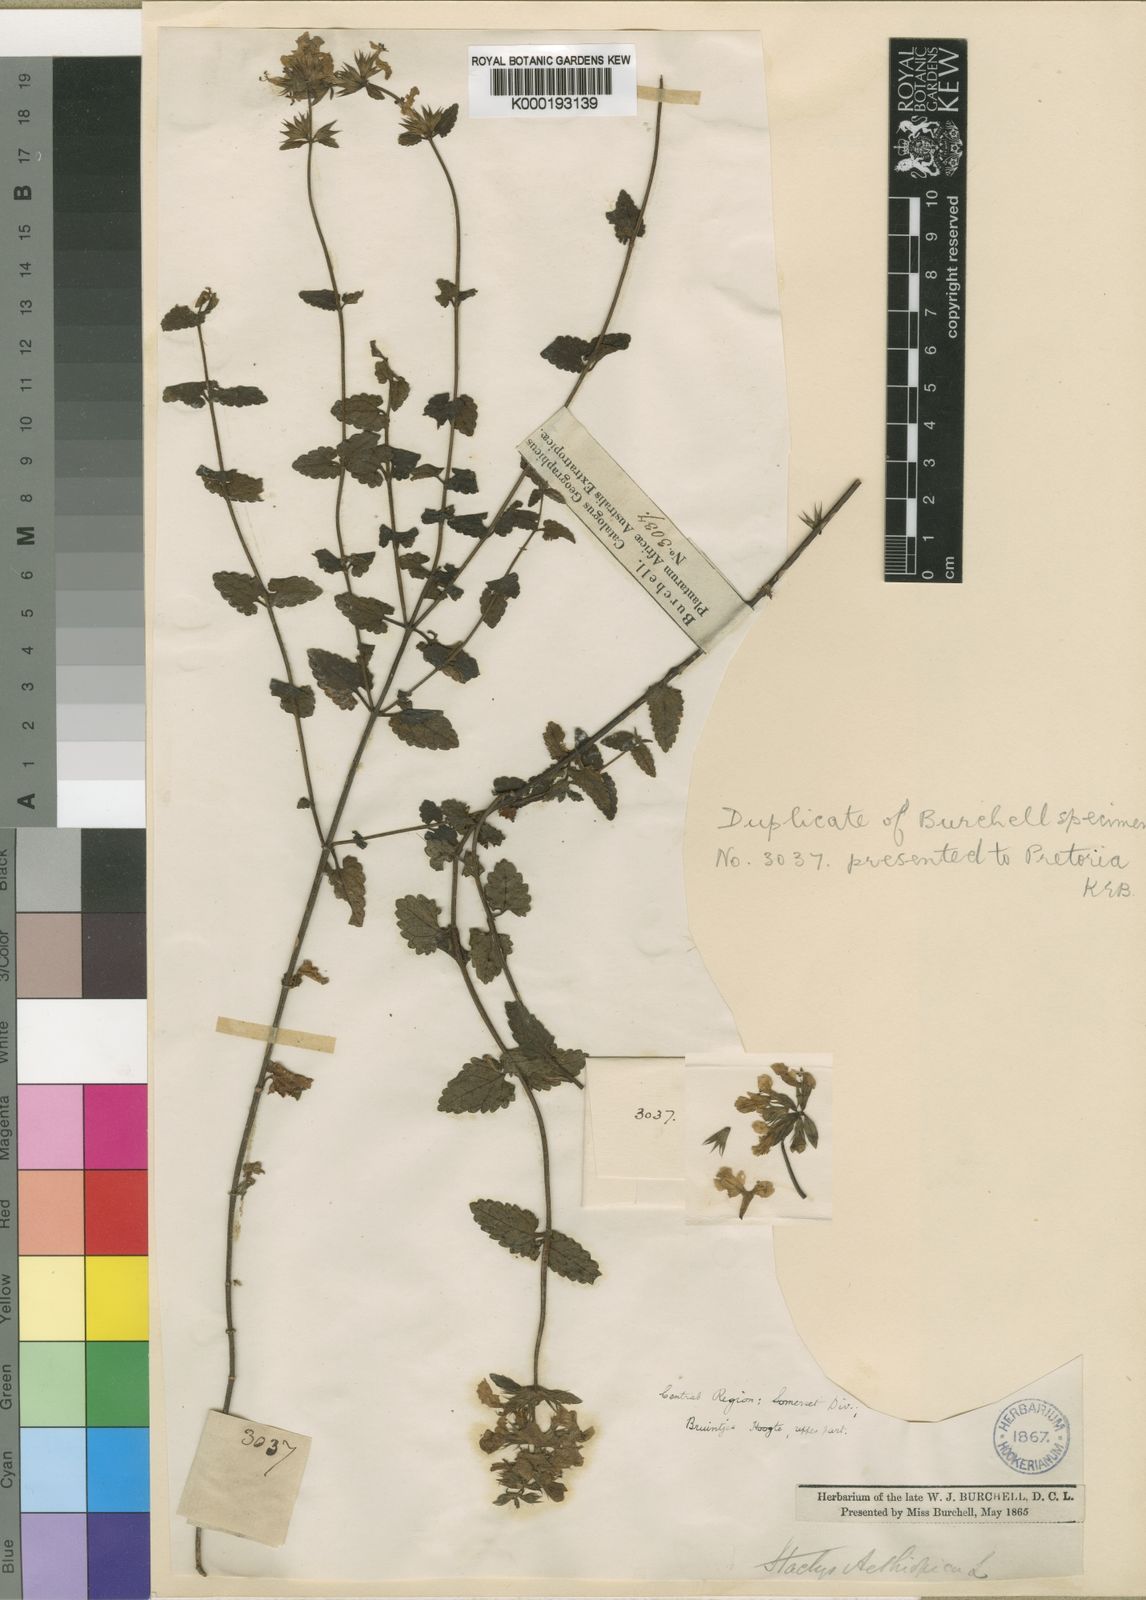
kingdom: Plantae
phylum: Tracheophyta
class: Magnoliopsida
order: Lamiales
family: Lamiaceae
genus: Stachys
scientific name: Stachys scabrida
